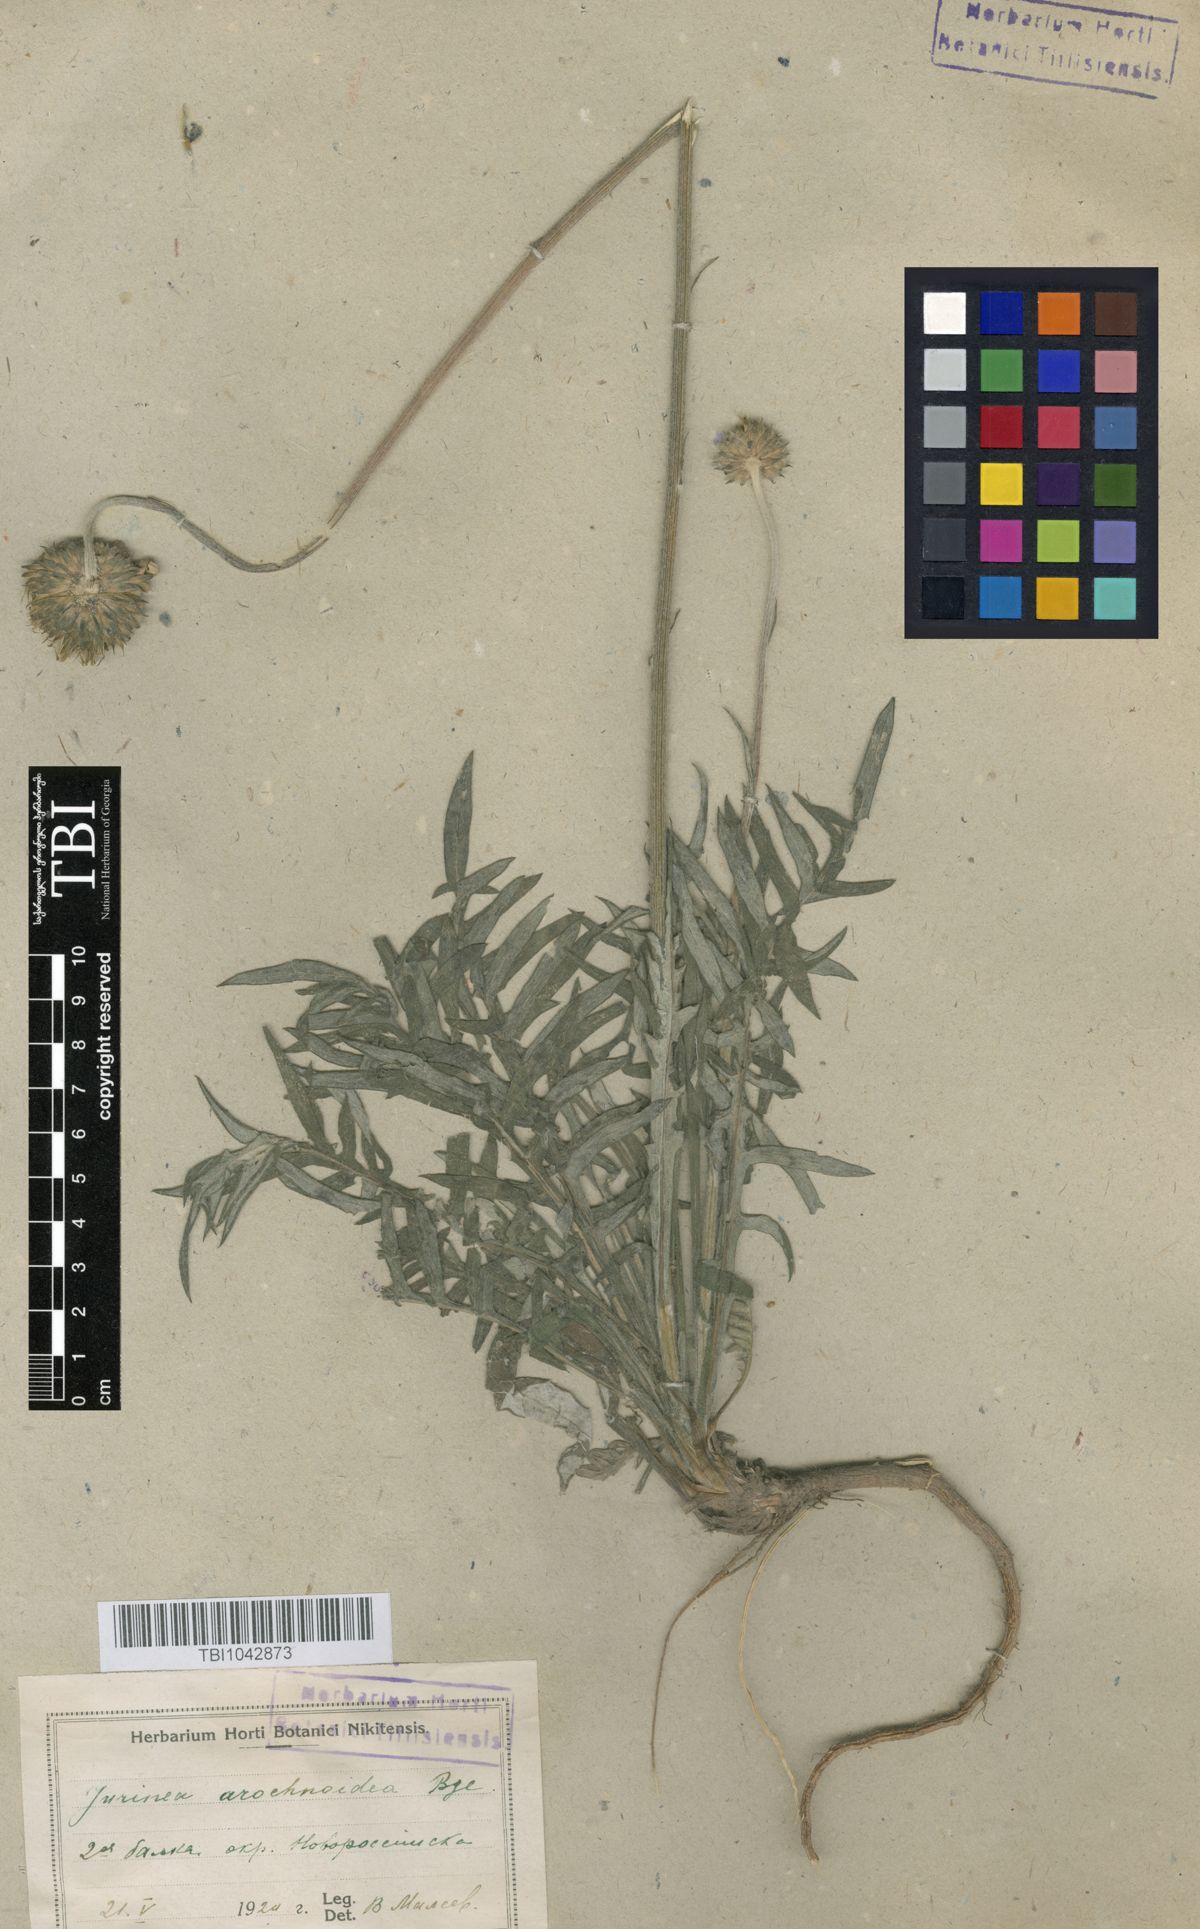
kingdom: Plantae
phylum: Tracheophyta
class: Magnoliopsida
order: Asterales
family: Asteraceae
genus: Jurinea
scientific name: Jurinea blanda
